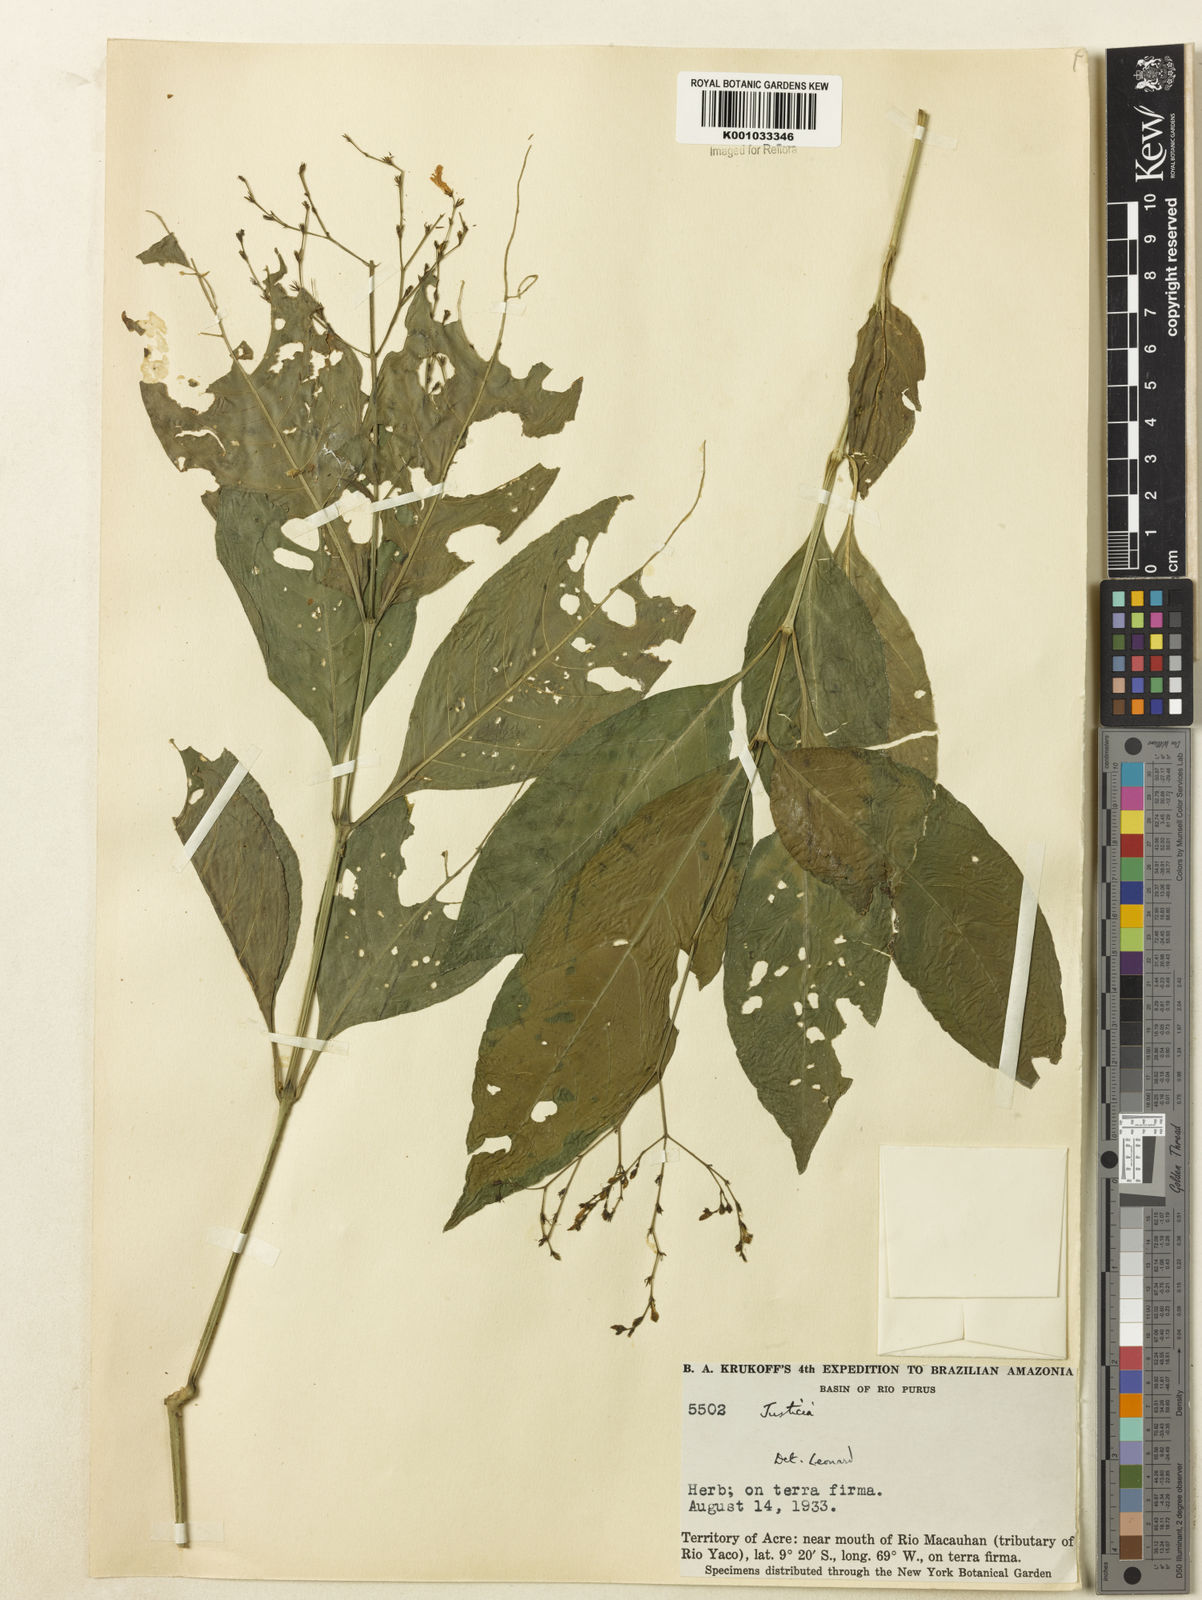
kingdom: Plantae
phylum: Tracheophyta
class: Magnoliopsida
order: Lamiales
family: Acanthaceae
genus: Dianthera
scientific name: Dianthera pectoralis
